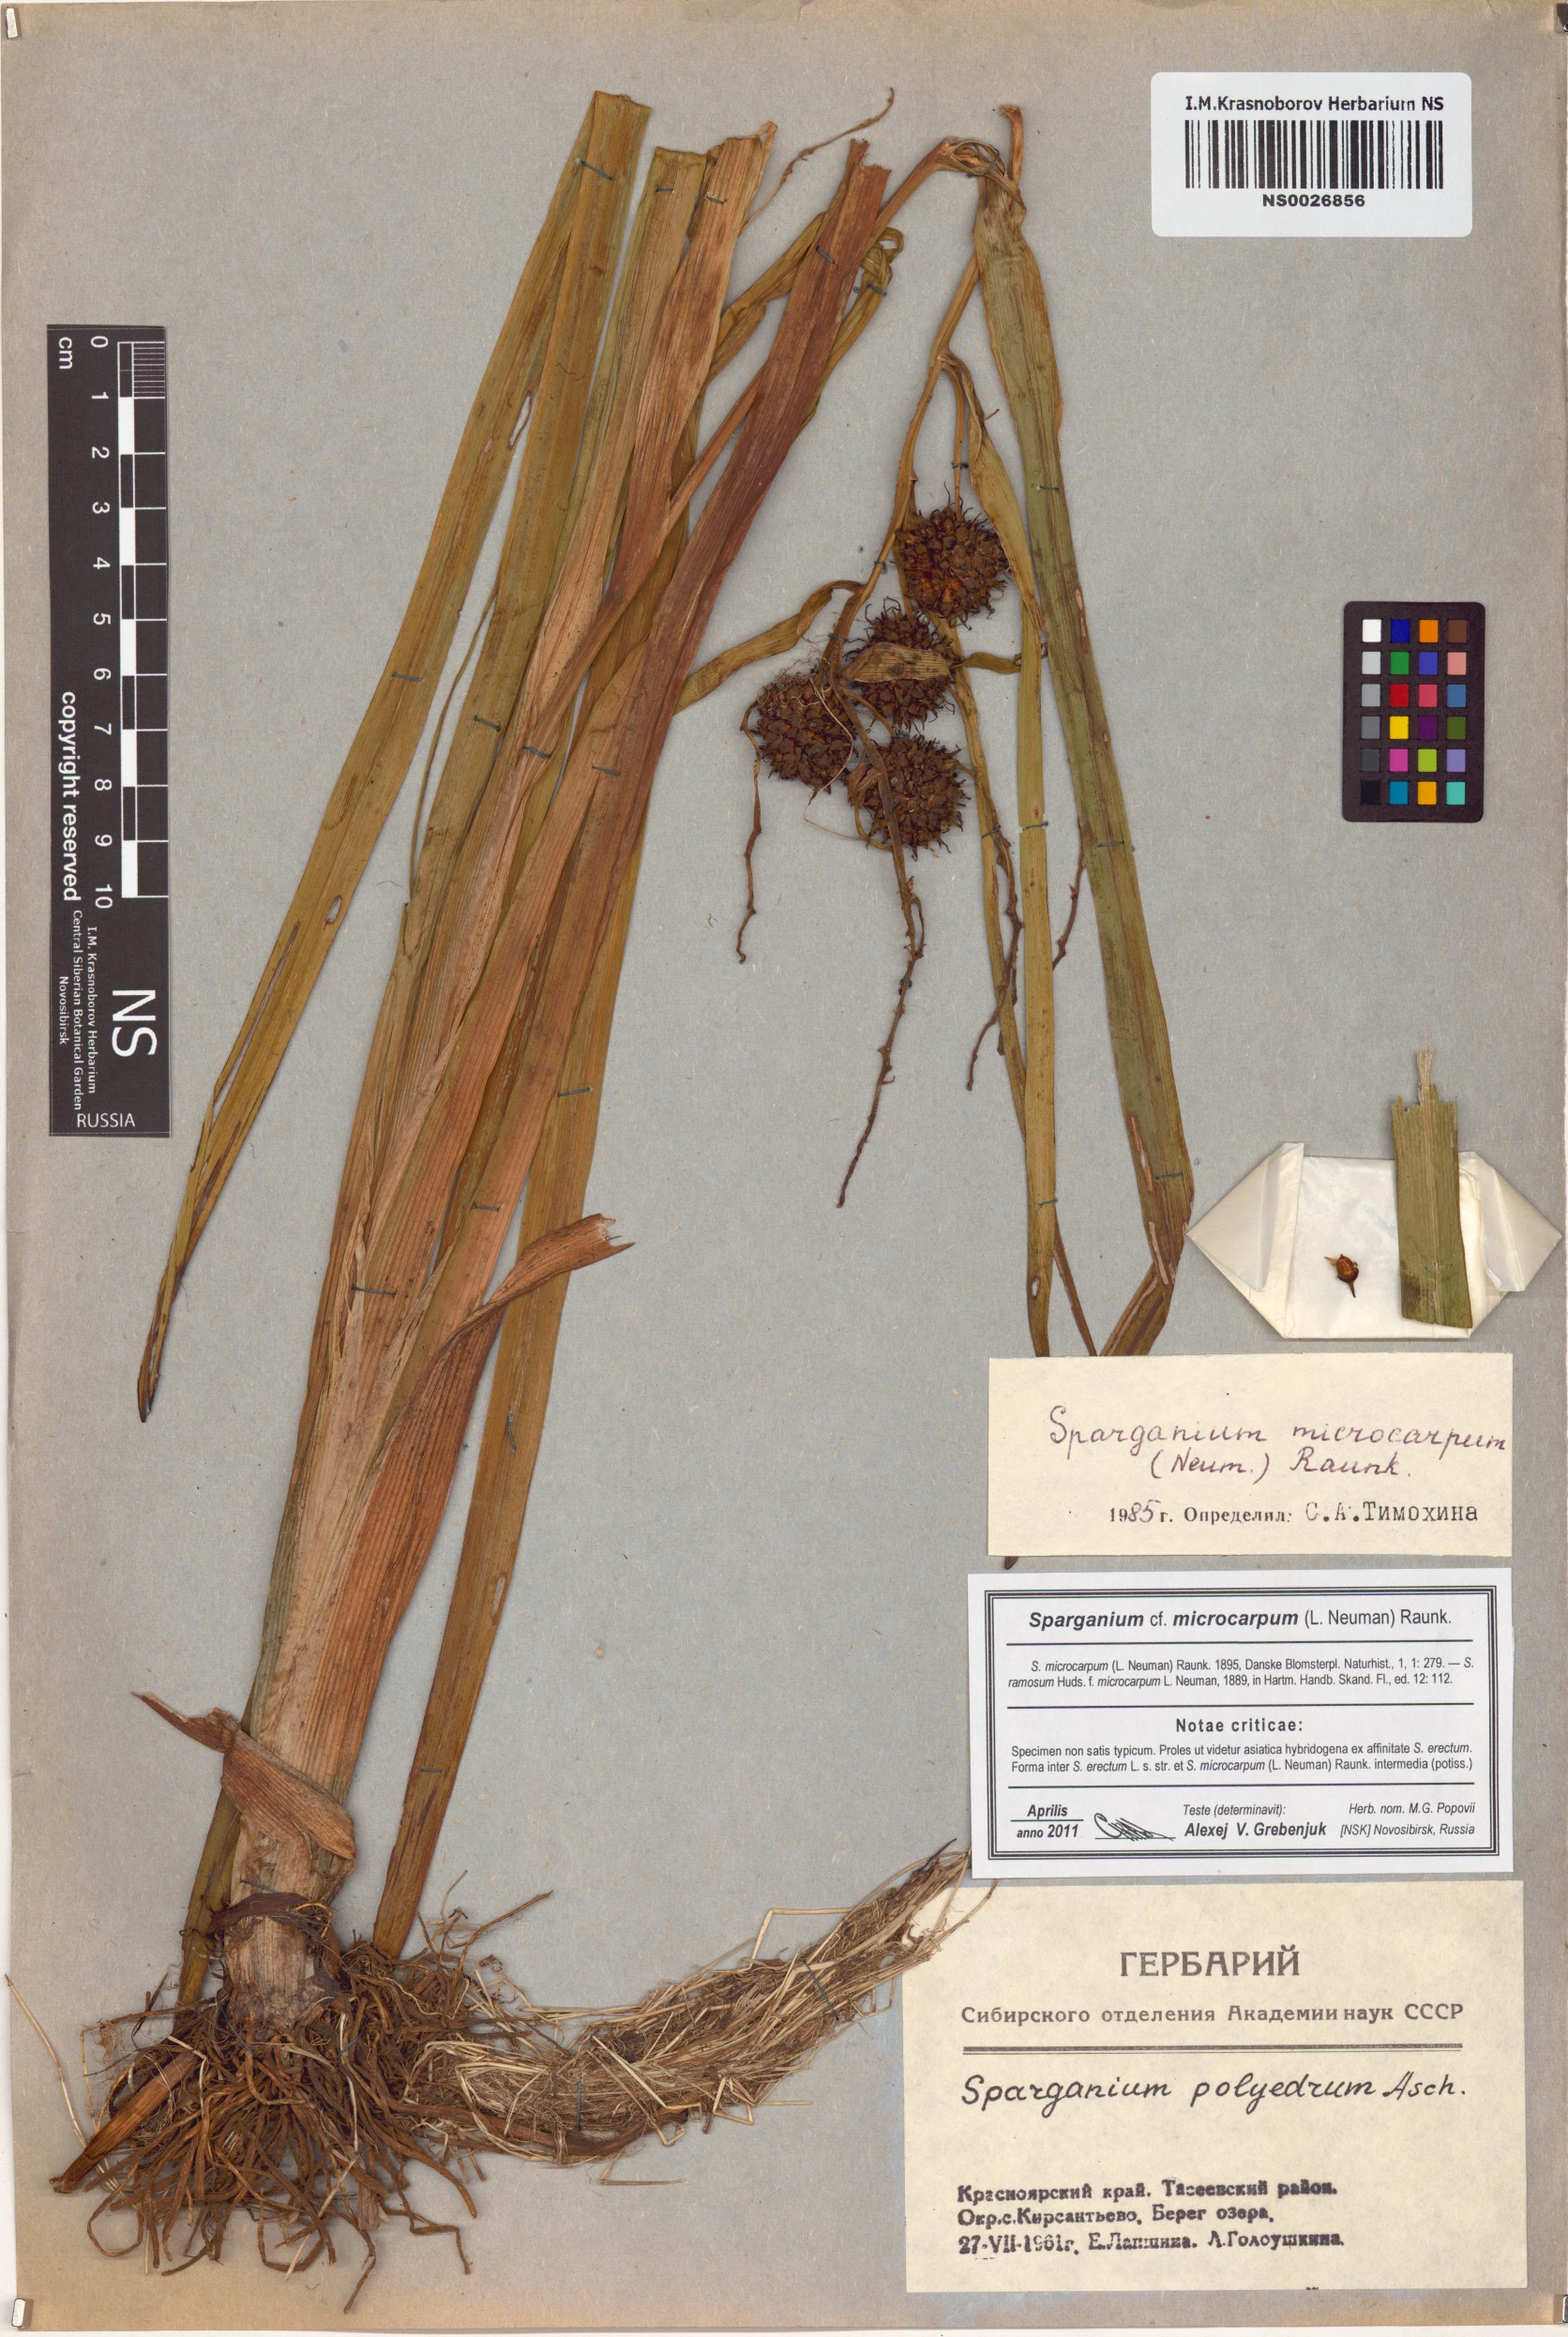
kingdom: Plantae
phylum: Tracheophyta
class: Liliopsida
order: Poales
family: Typhaceae
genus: Sparganium
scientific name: Sparganium erectum
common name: Branched bur-reed
